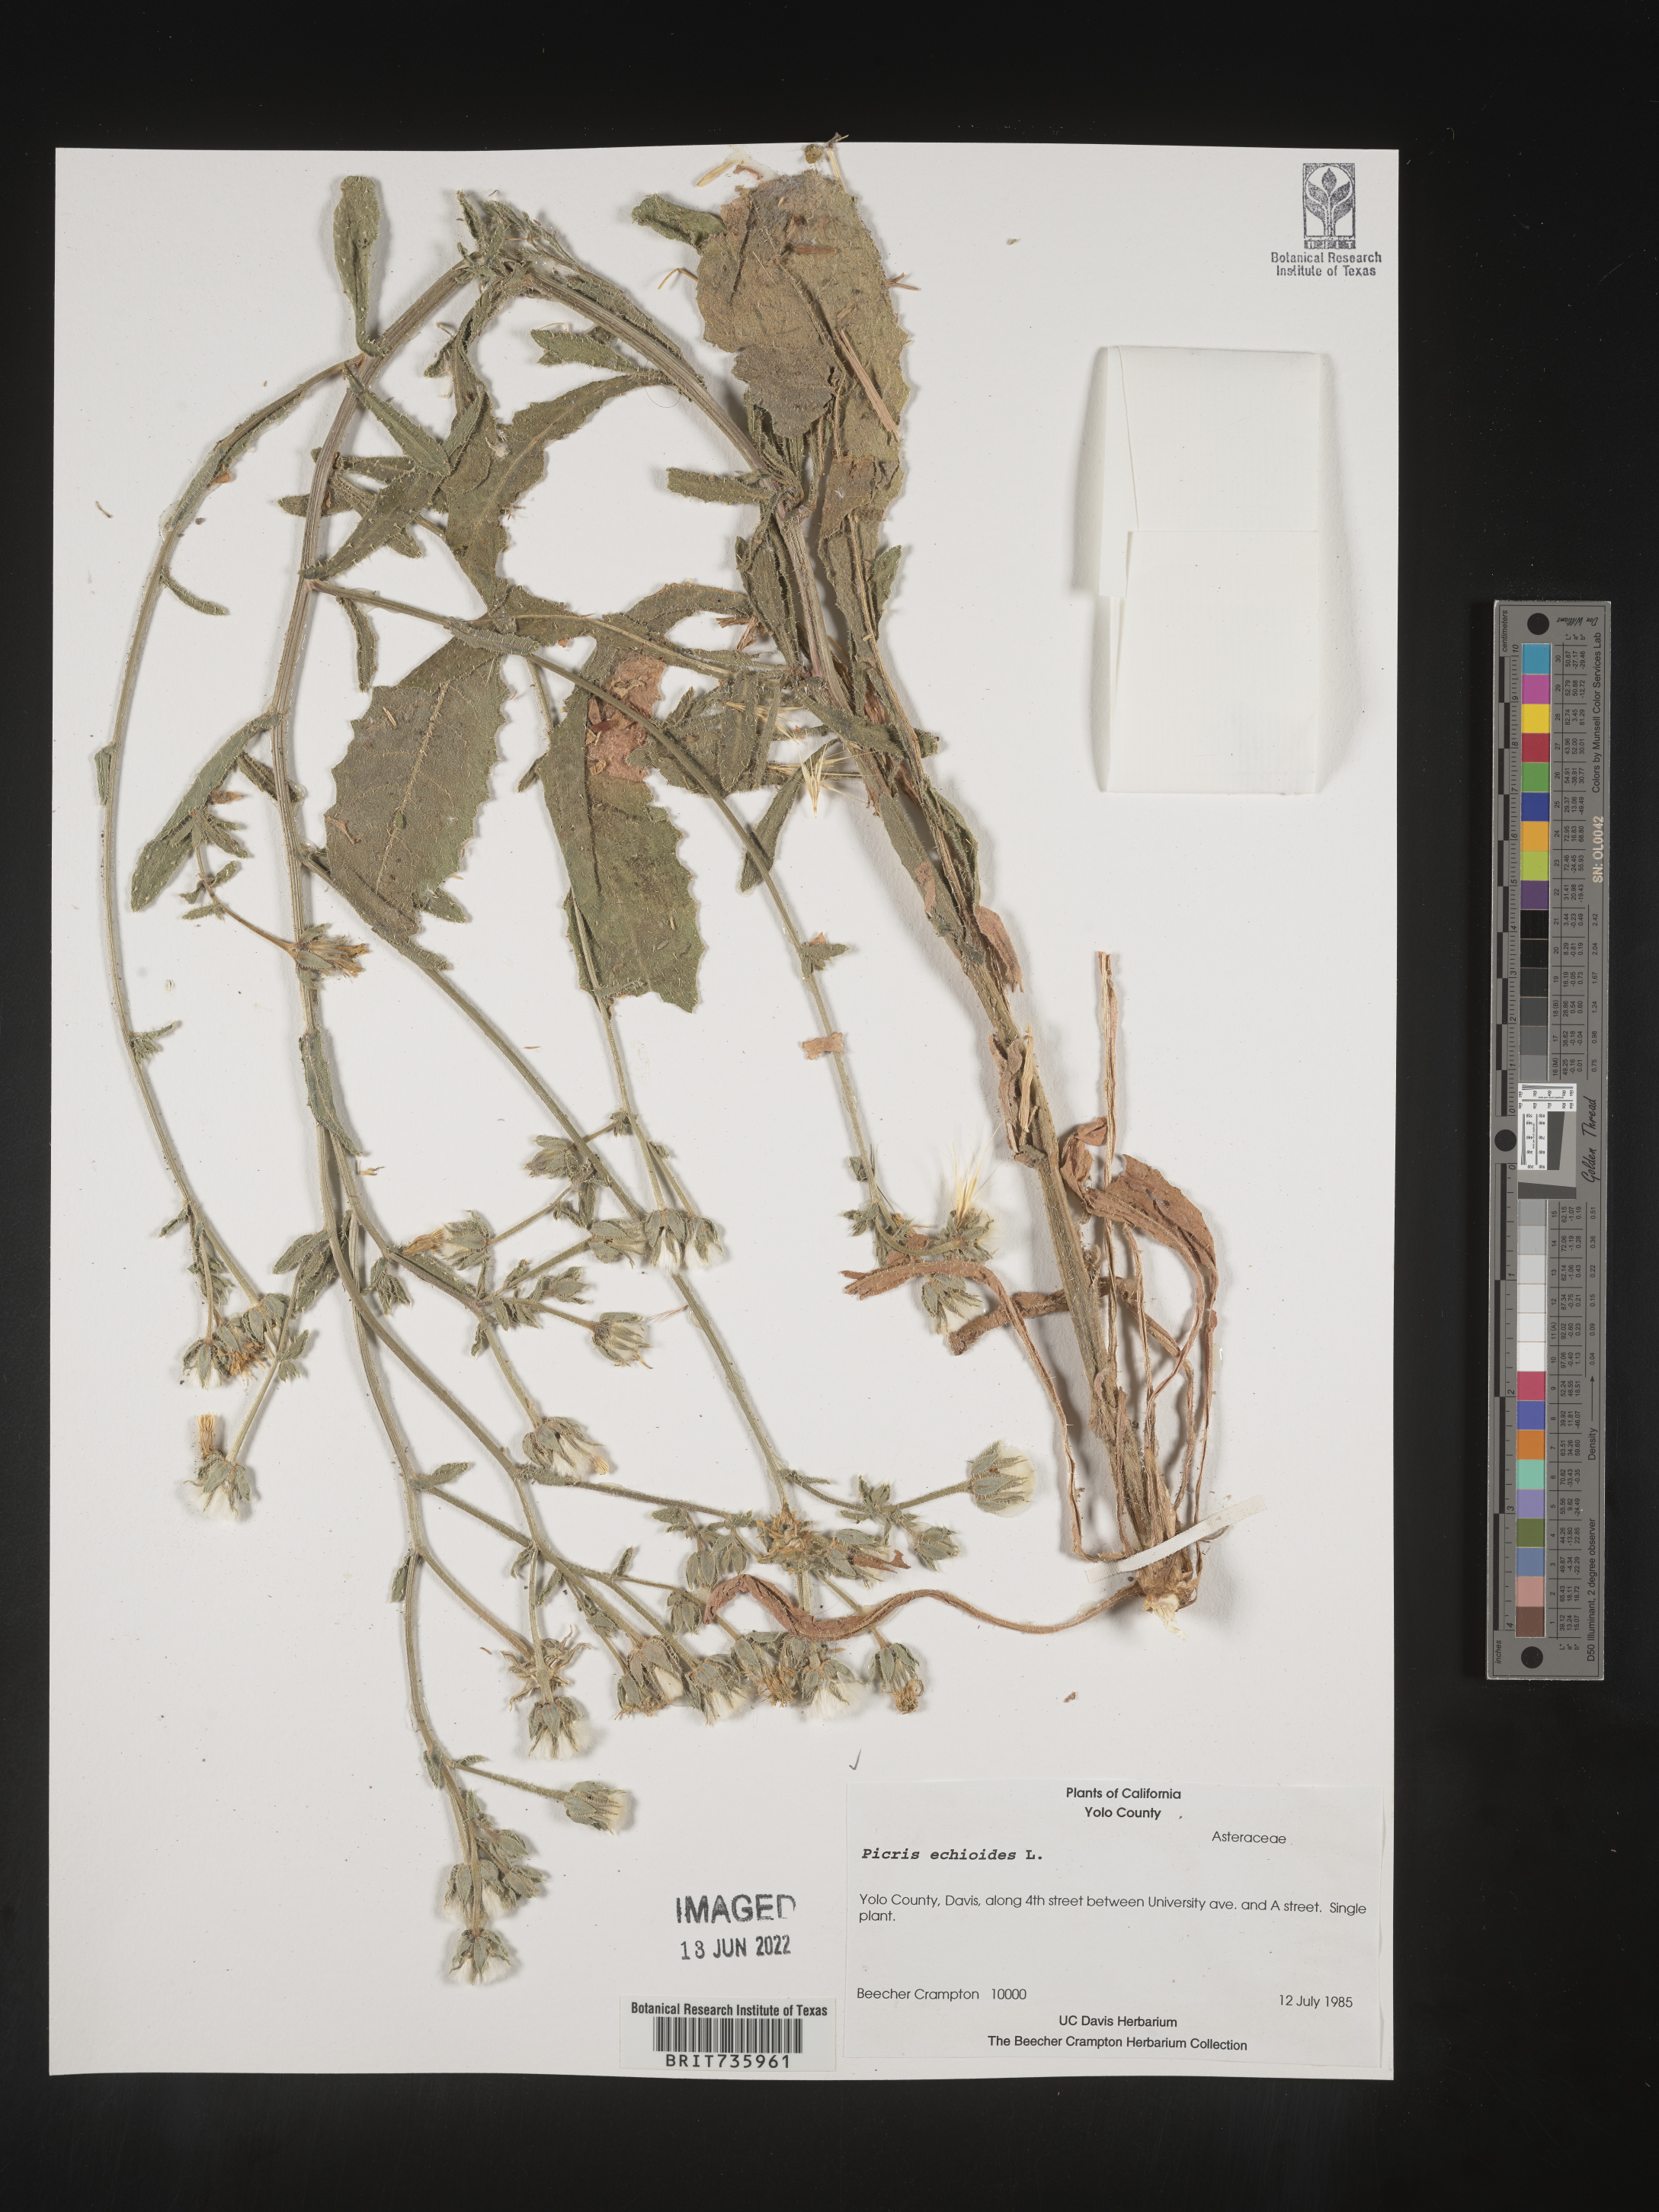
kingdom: Plantae
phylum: Tracheophyta
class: Magnoliopsida
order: Asterales
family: Asteraceae
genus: Picris
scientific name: Picris
